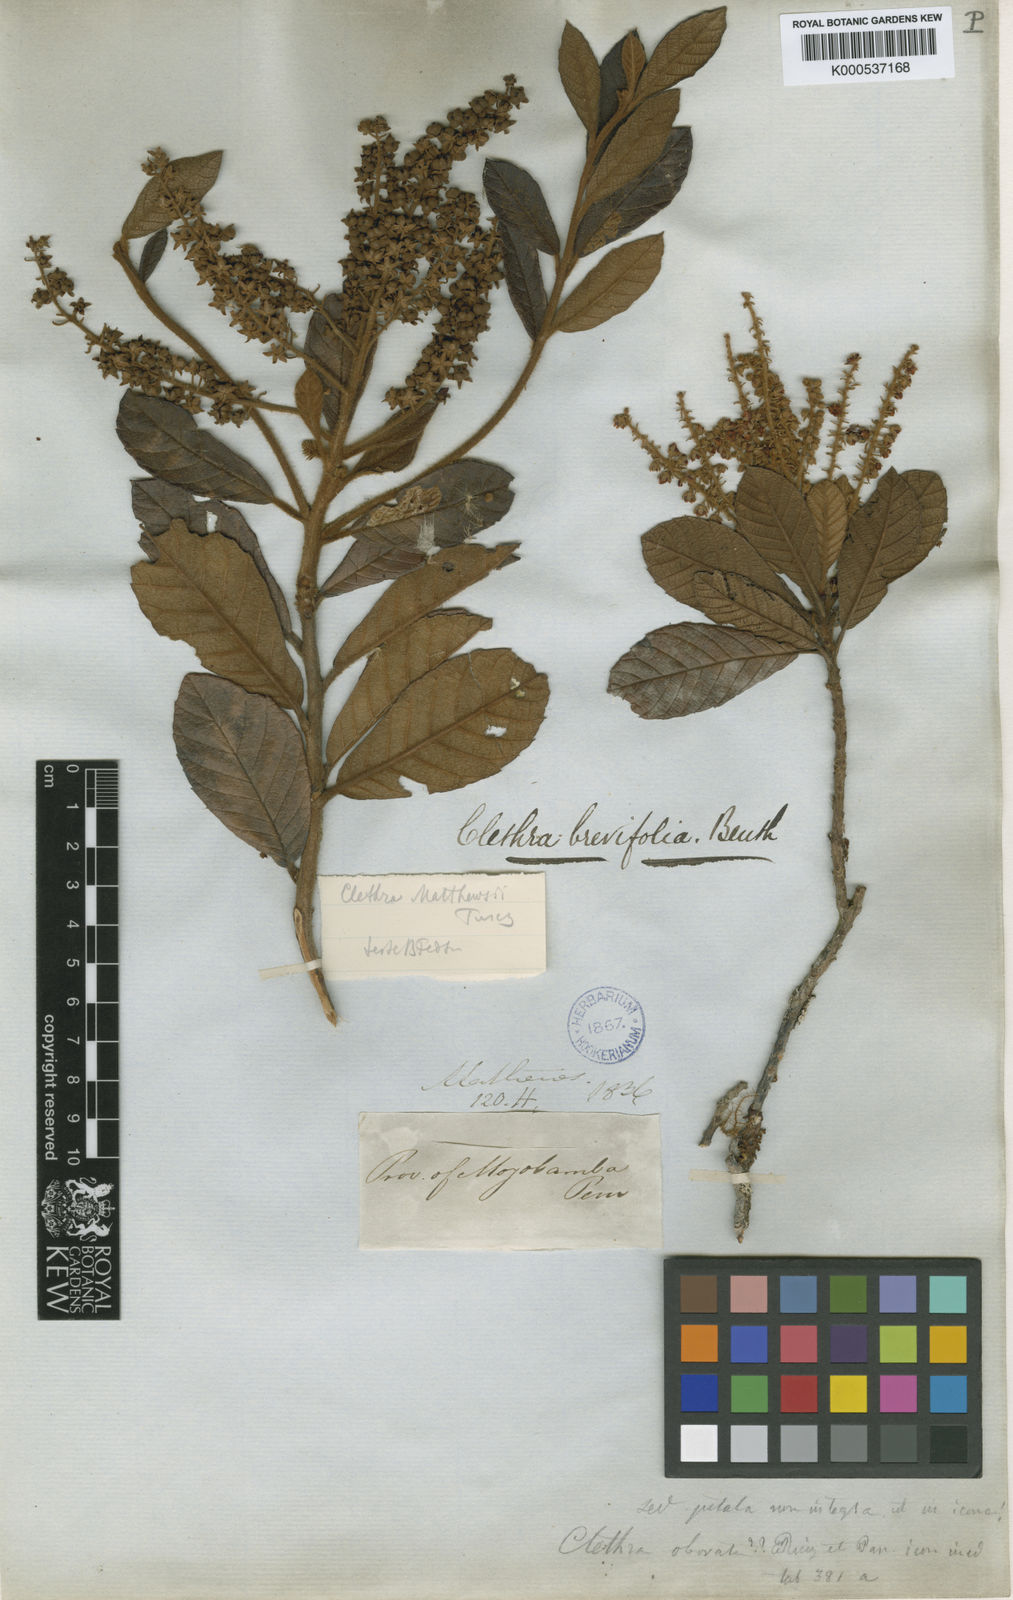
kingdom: Plantae
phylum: Tracheophyta
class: Magnoliopsida
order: Ericales
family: Clethraceae
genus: Clethra
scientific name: Clethra castaneifolia
